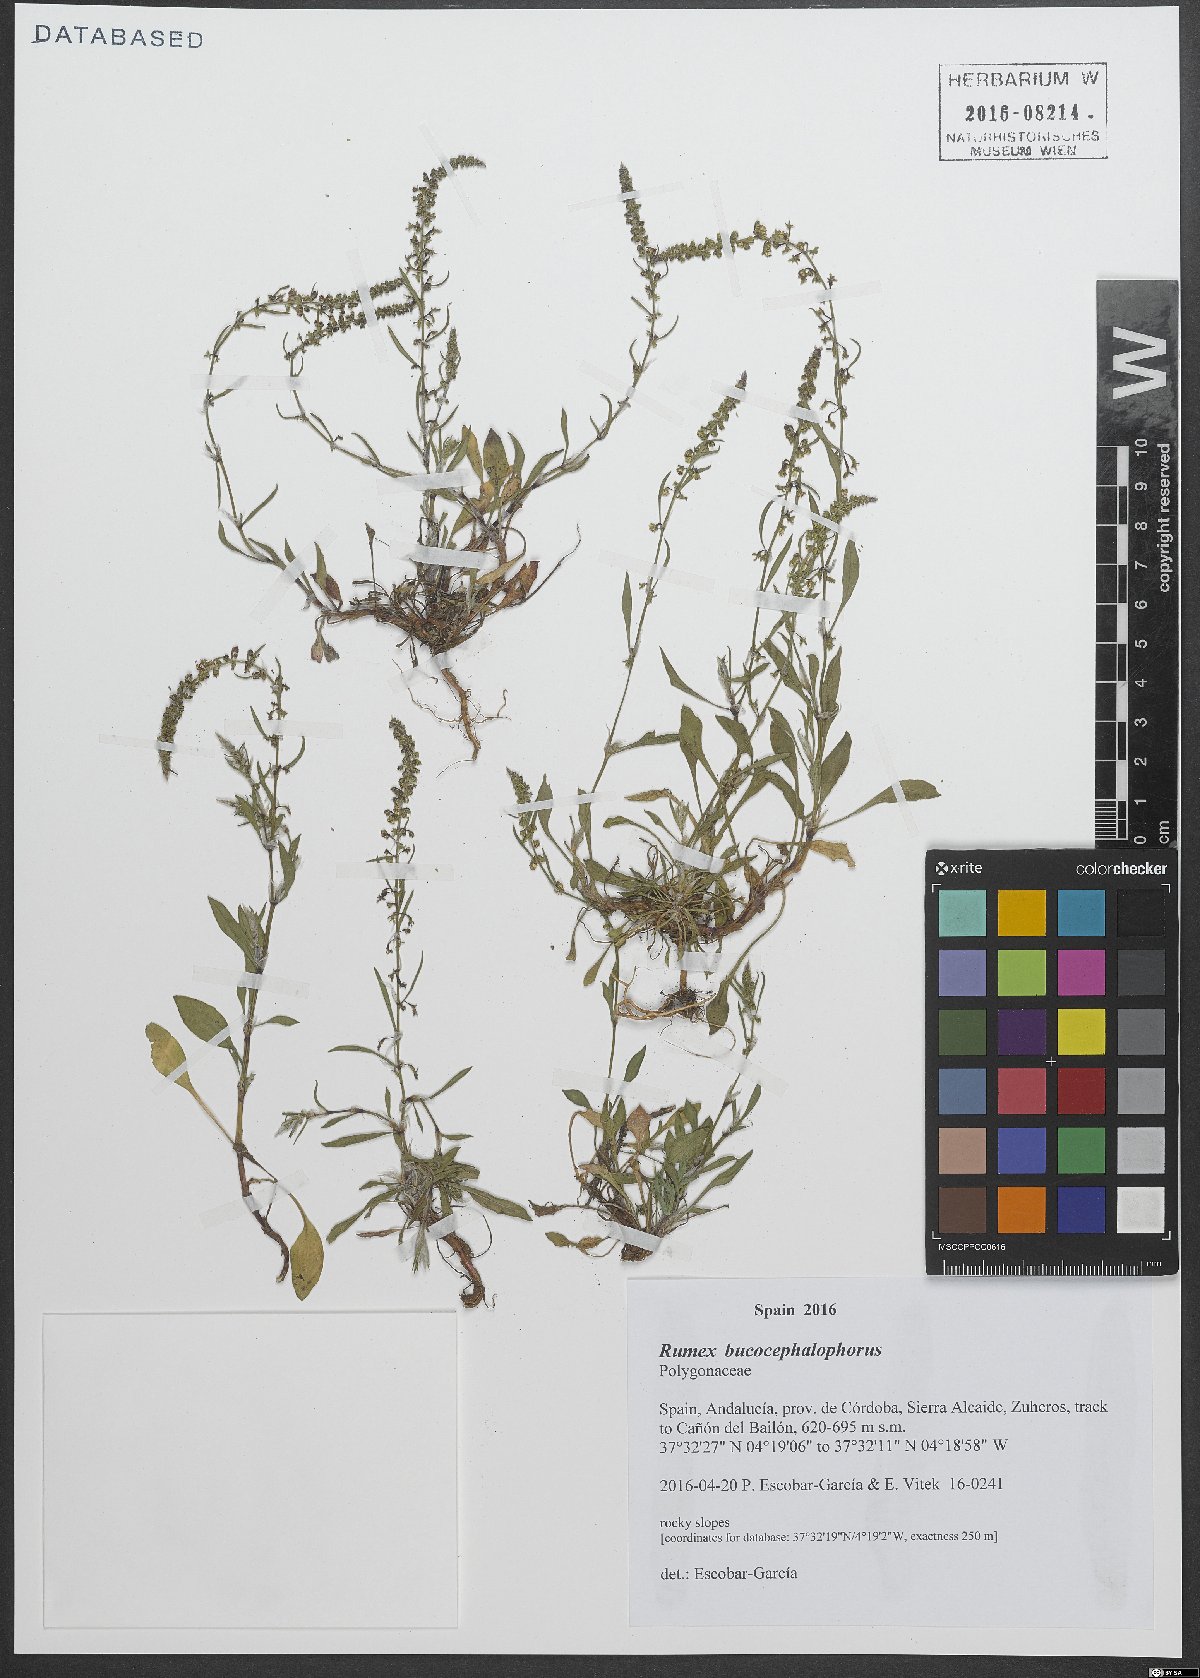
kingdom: Plantae
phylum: Tracheophyta
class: Magnoliopsida
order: Caryophyllales
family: Polygonaceae
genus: Rumex
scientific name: Rumex bucephalophorus
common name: Red dock
